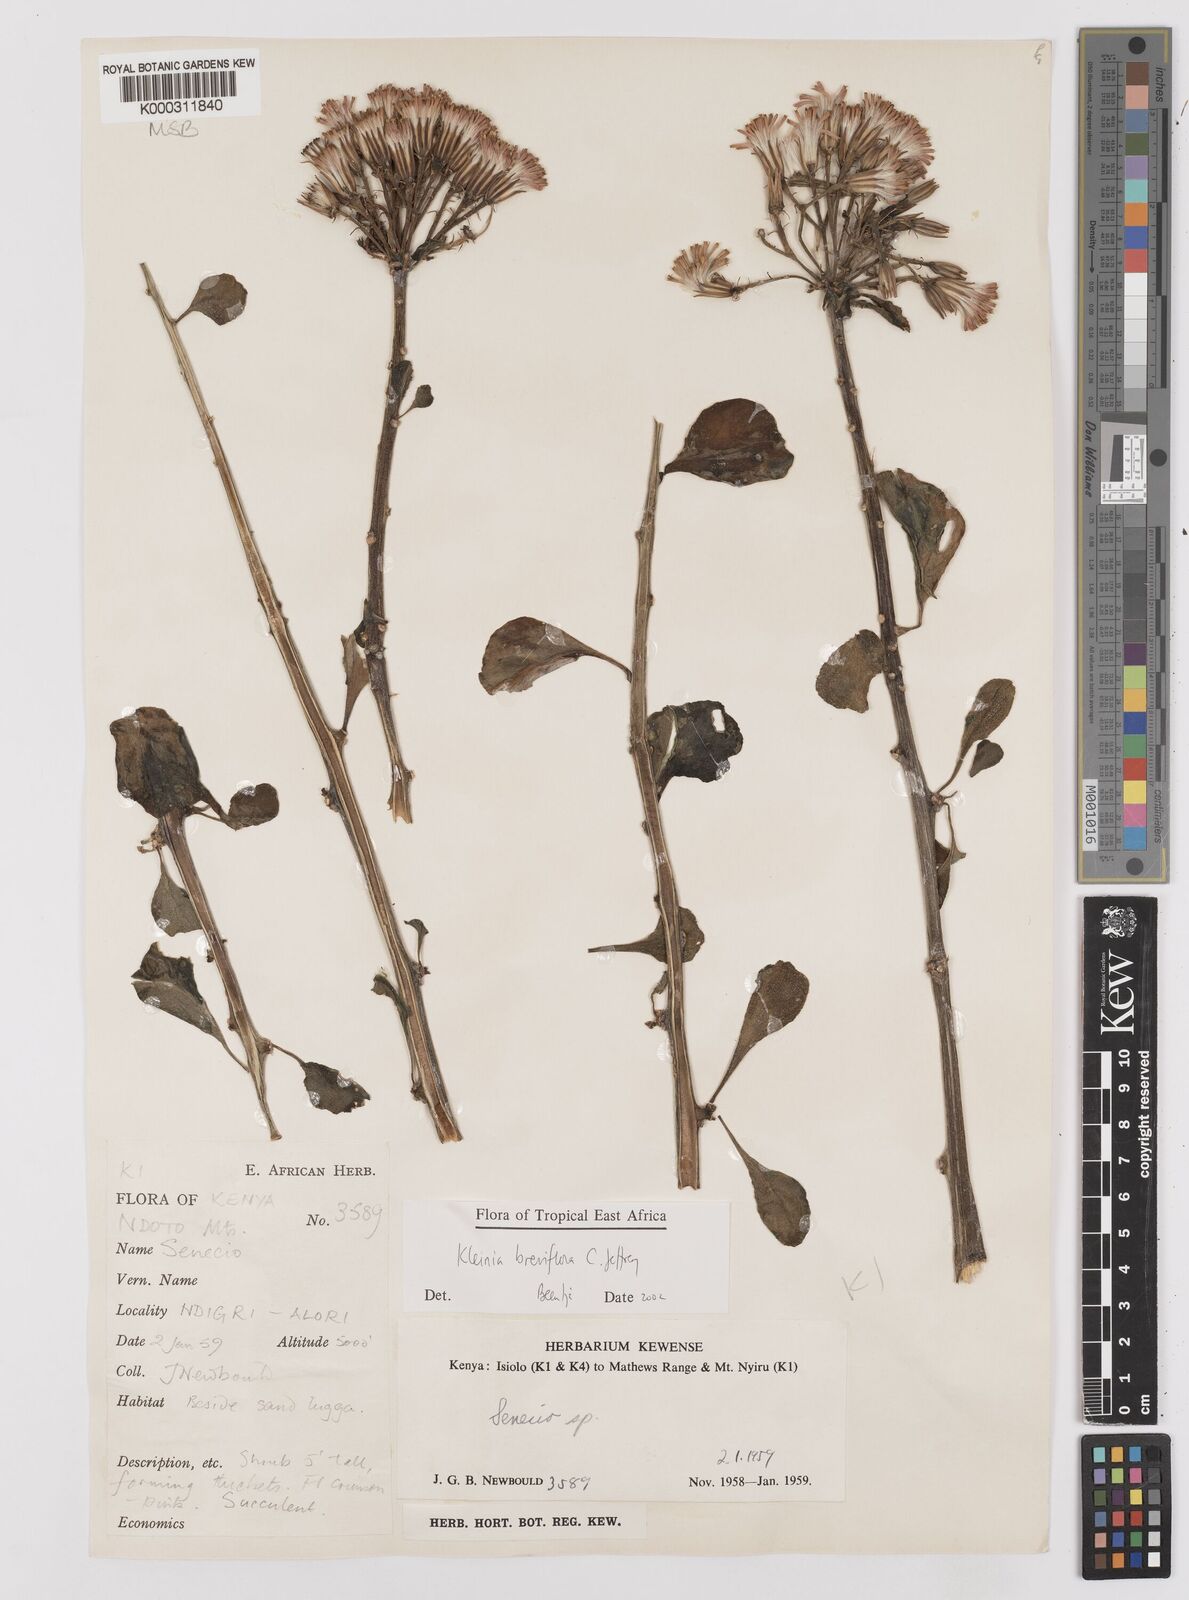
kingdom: Plantae
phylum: Tracheophyta
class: Magnoliopsida
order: Asterales
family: Asteraceae
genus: Kleinia
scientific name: Kleinia polycotoma
